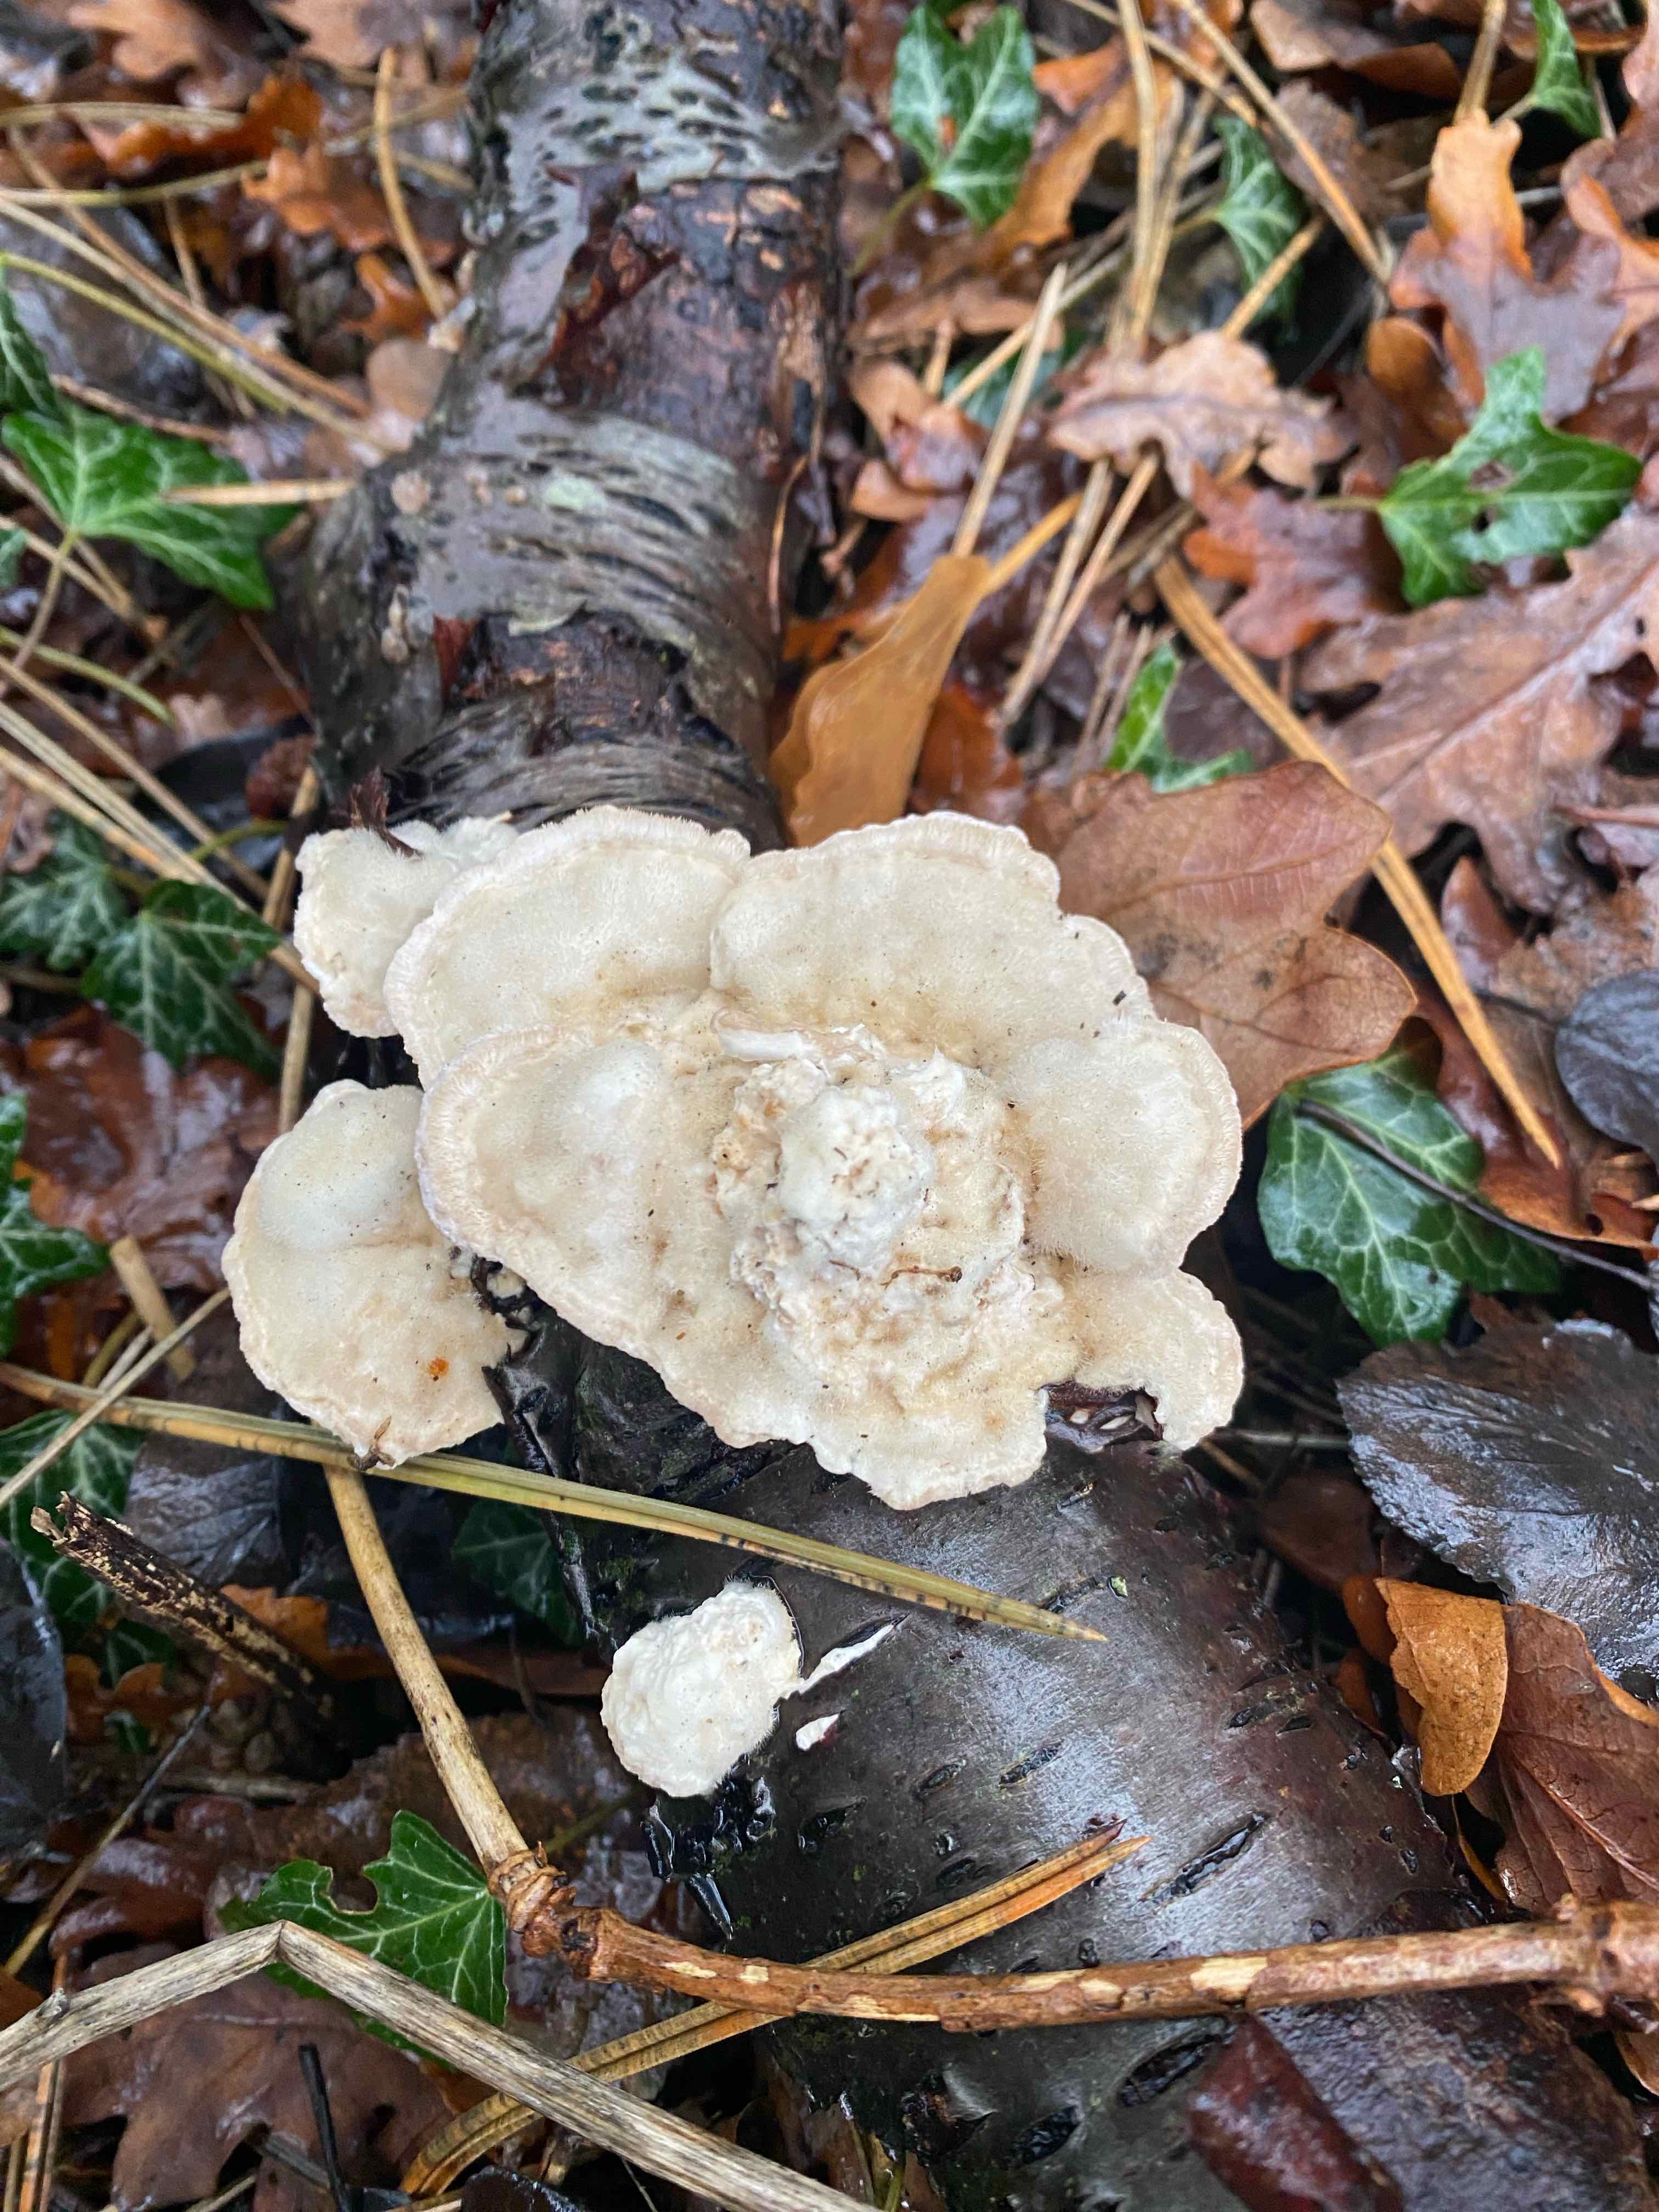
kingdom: Fungi
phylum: Basidiomycota
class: Agaricomycetes
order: Polyporales
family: Polyporaceae
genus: Trametes
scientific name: Trametes hirsuta
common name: håret læderporesvamp
